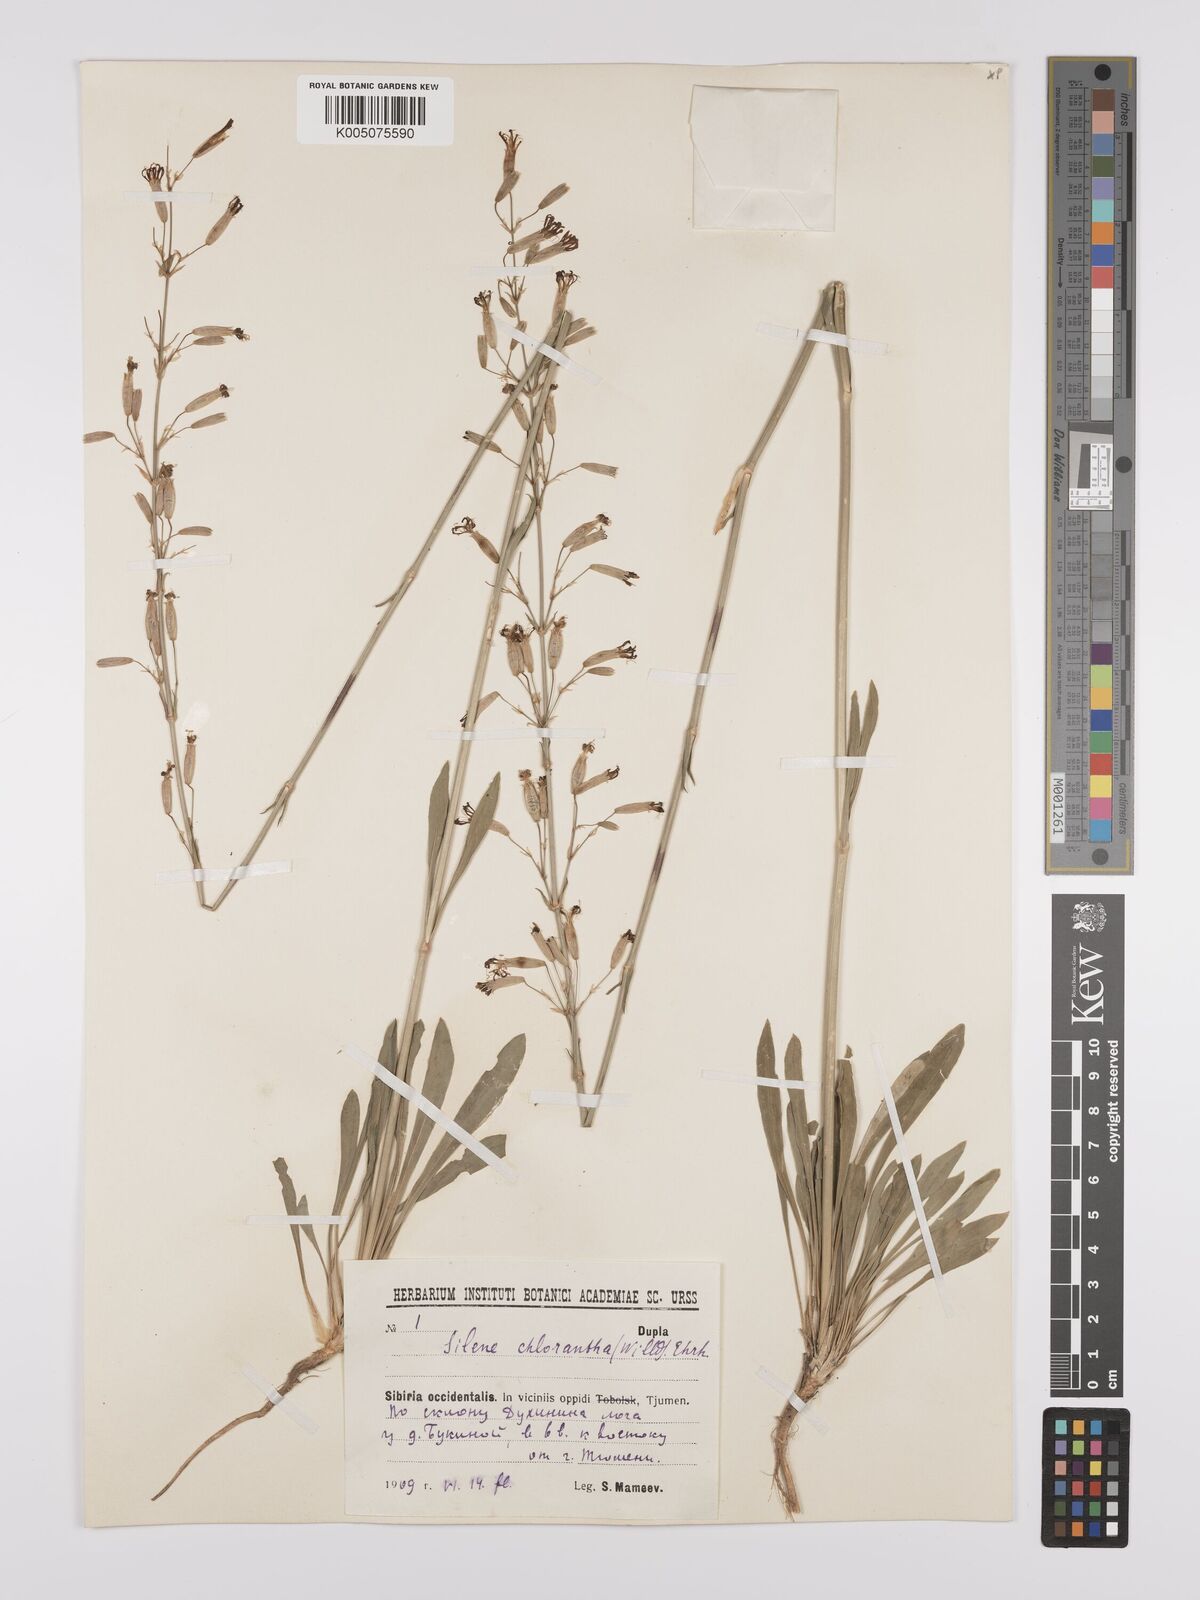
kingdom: Plantae
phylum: Tracheophyta
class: Magnoliopsida
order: Caryophyllales
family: Caryophyllaceae
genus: Silene
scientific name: Silene
